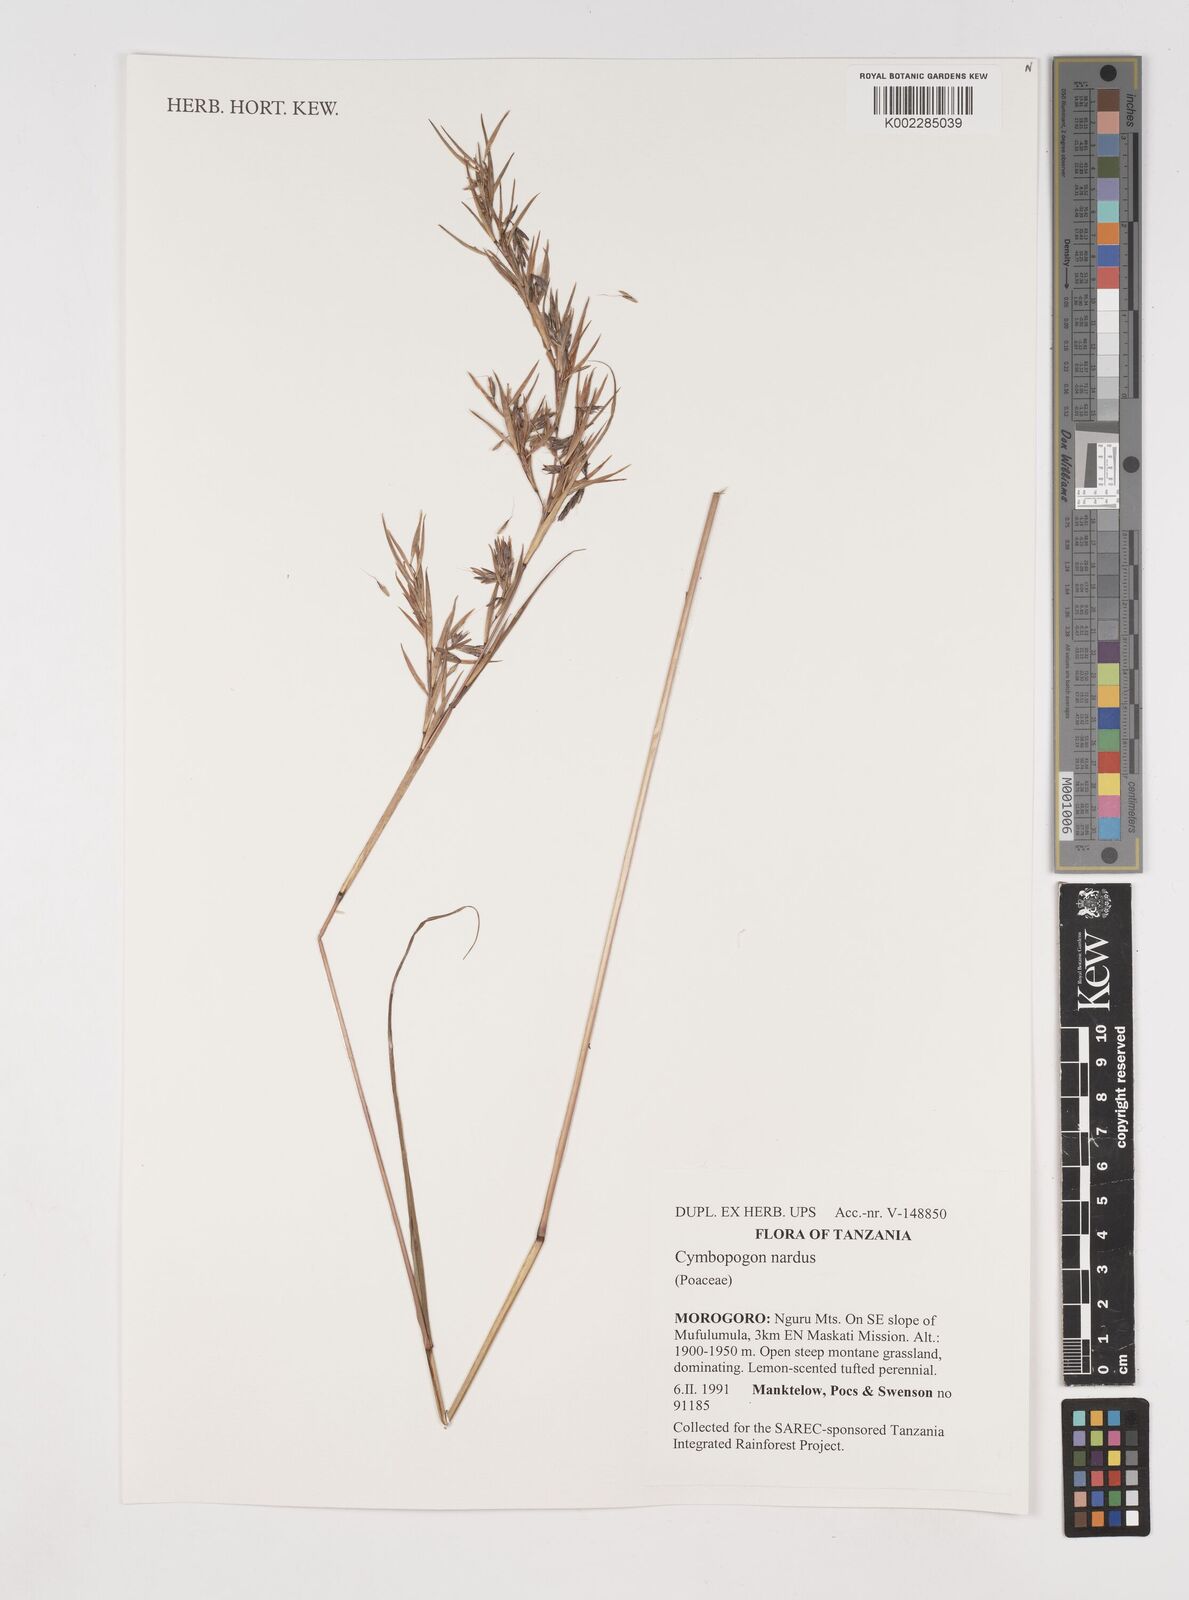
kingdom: Plantae
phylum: Tracheophyta
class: Liliopsida
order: Poales
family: Poaceae
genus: Cymbopogon
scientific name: Cymbopogon nardus
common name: Giant turpentine grass
